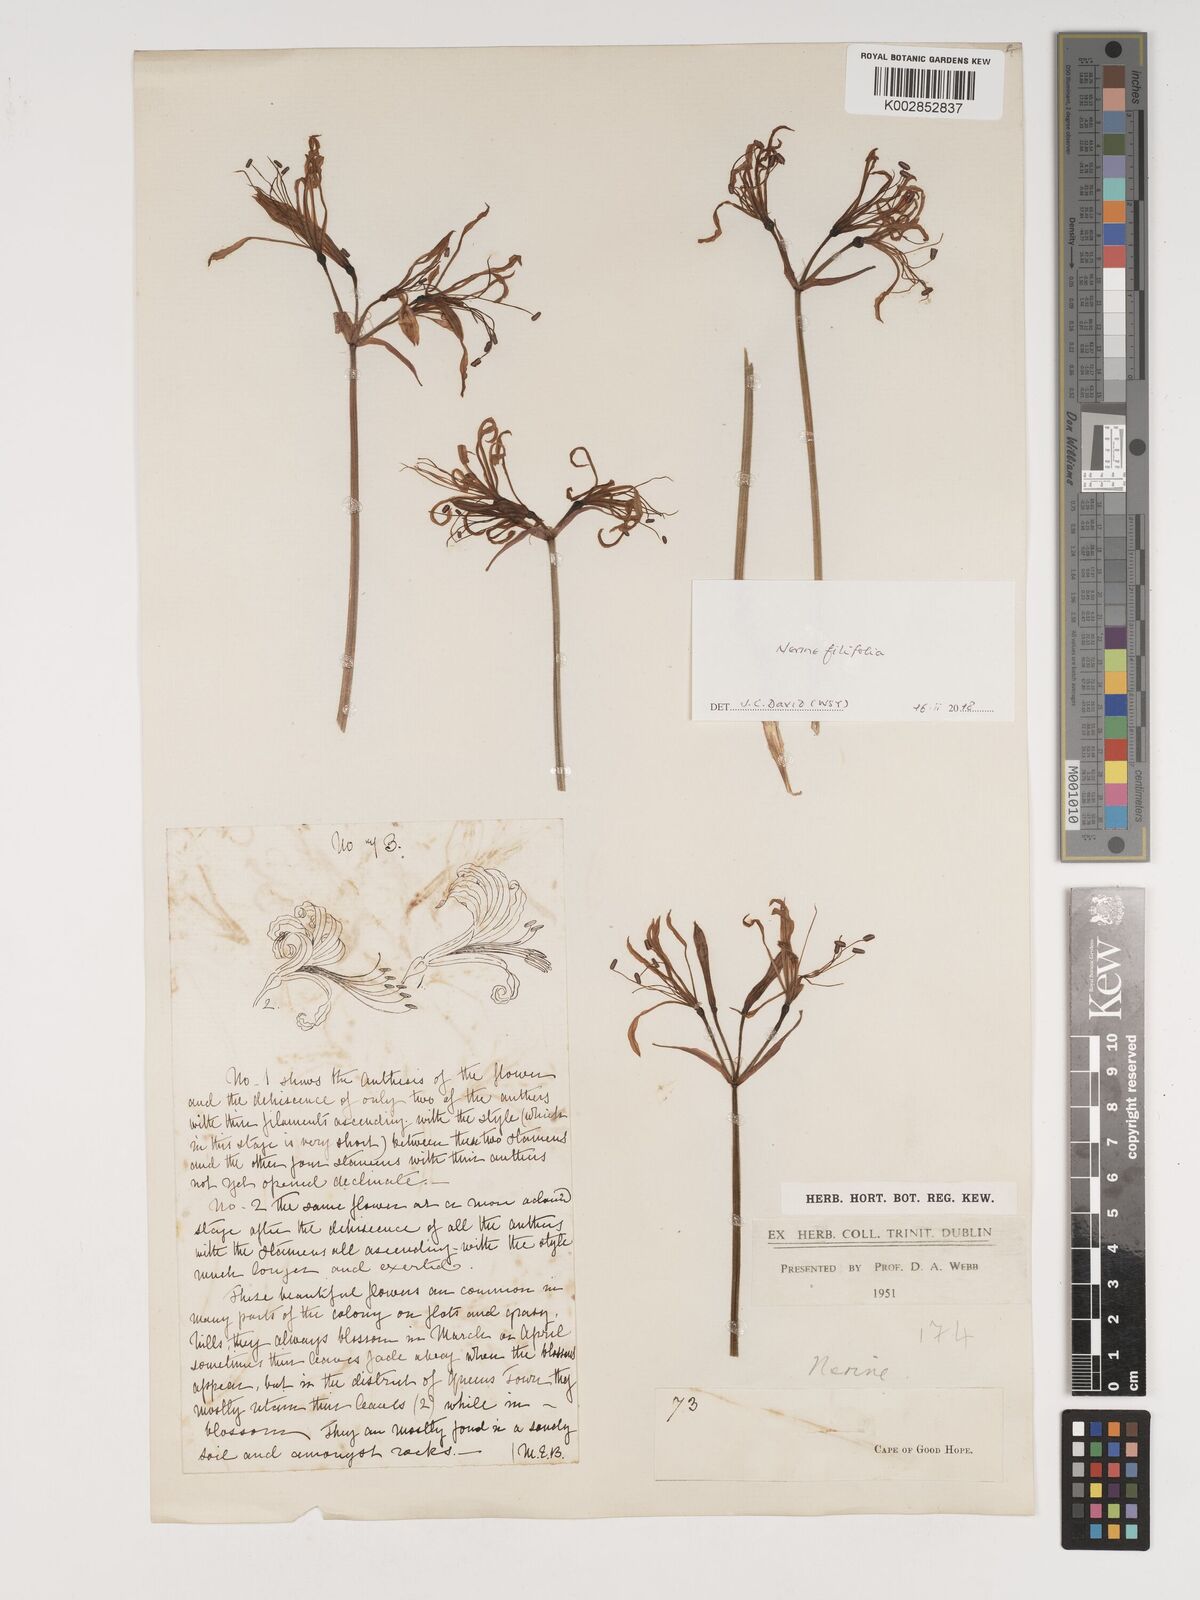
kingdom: Plantae
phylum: Tracheophyta
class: Liliopsida
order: Asparagales
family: Amaryllidaceae
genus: Nerine
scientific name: Nerine filifolia
